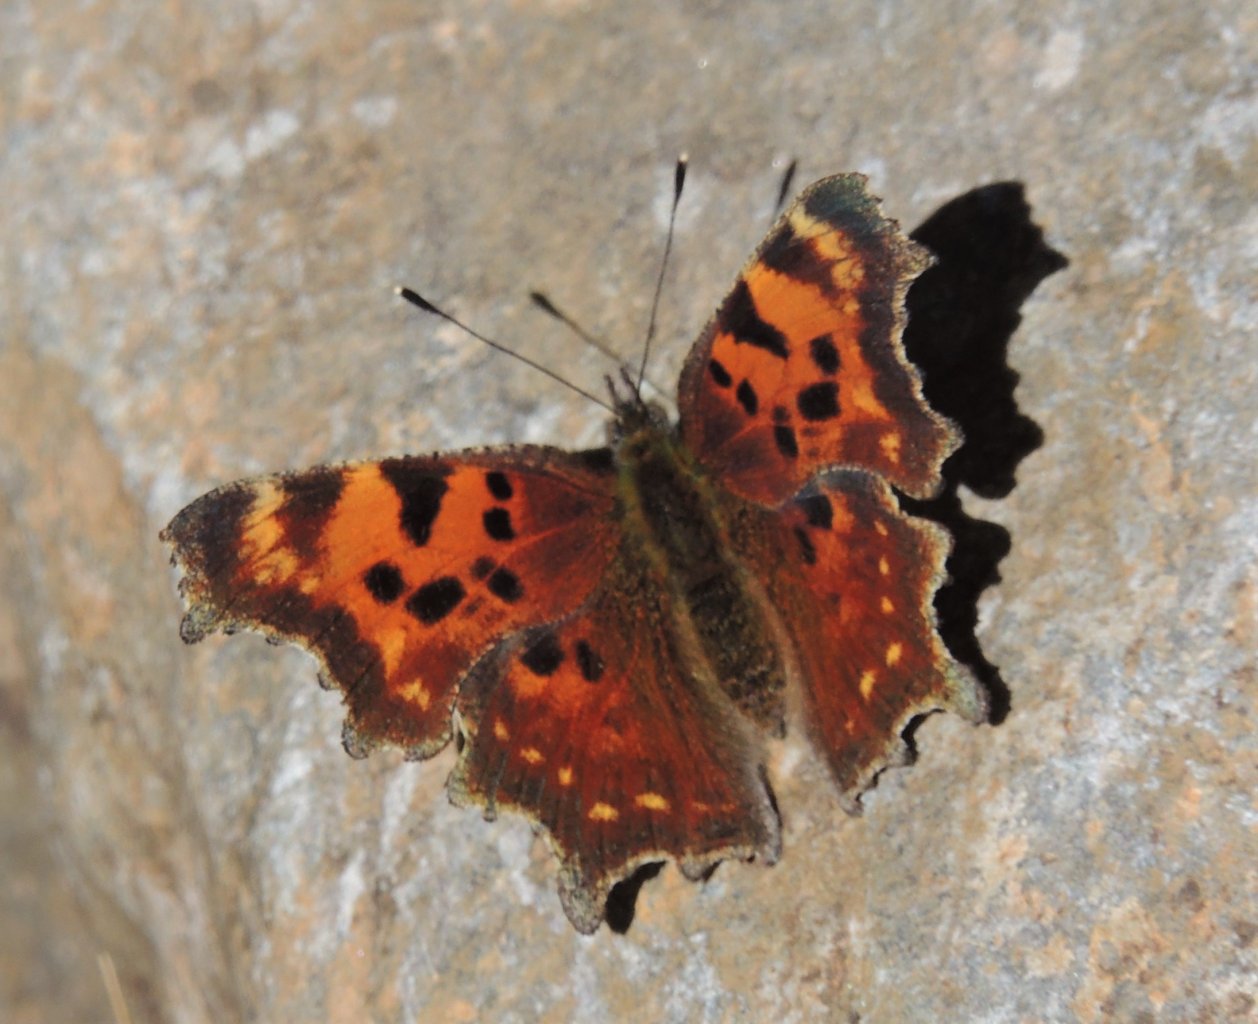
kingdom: Animalia
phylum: Arthropoda
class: Insecta
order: Lepidoptera
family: Nymphalidae
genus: Polygonia
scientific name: Polygonia faunus
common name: Green Comma
